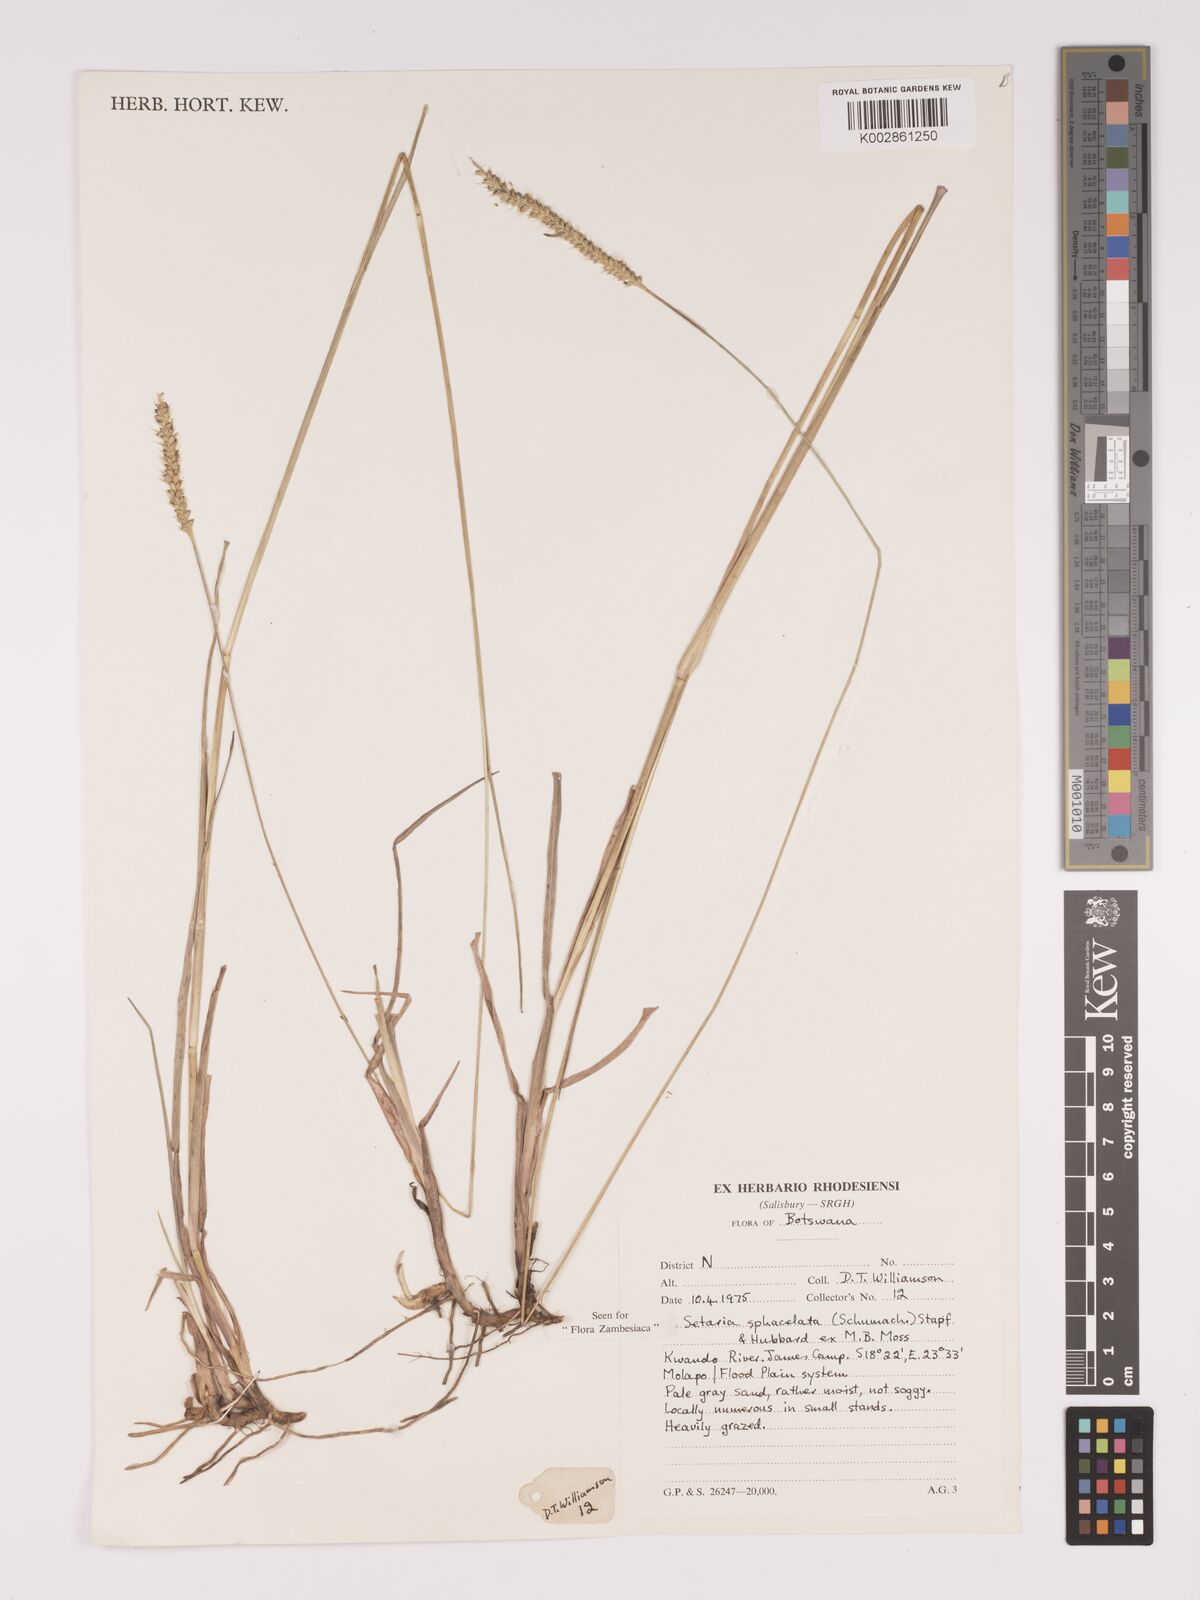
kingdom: Plantae
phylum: Tracheophyta
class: Liliopsida
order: Poales
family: Poaceae
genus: Setaria
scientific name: Setaria sphacelata
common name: African bristlegrass
